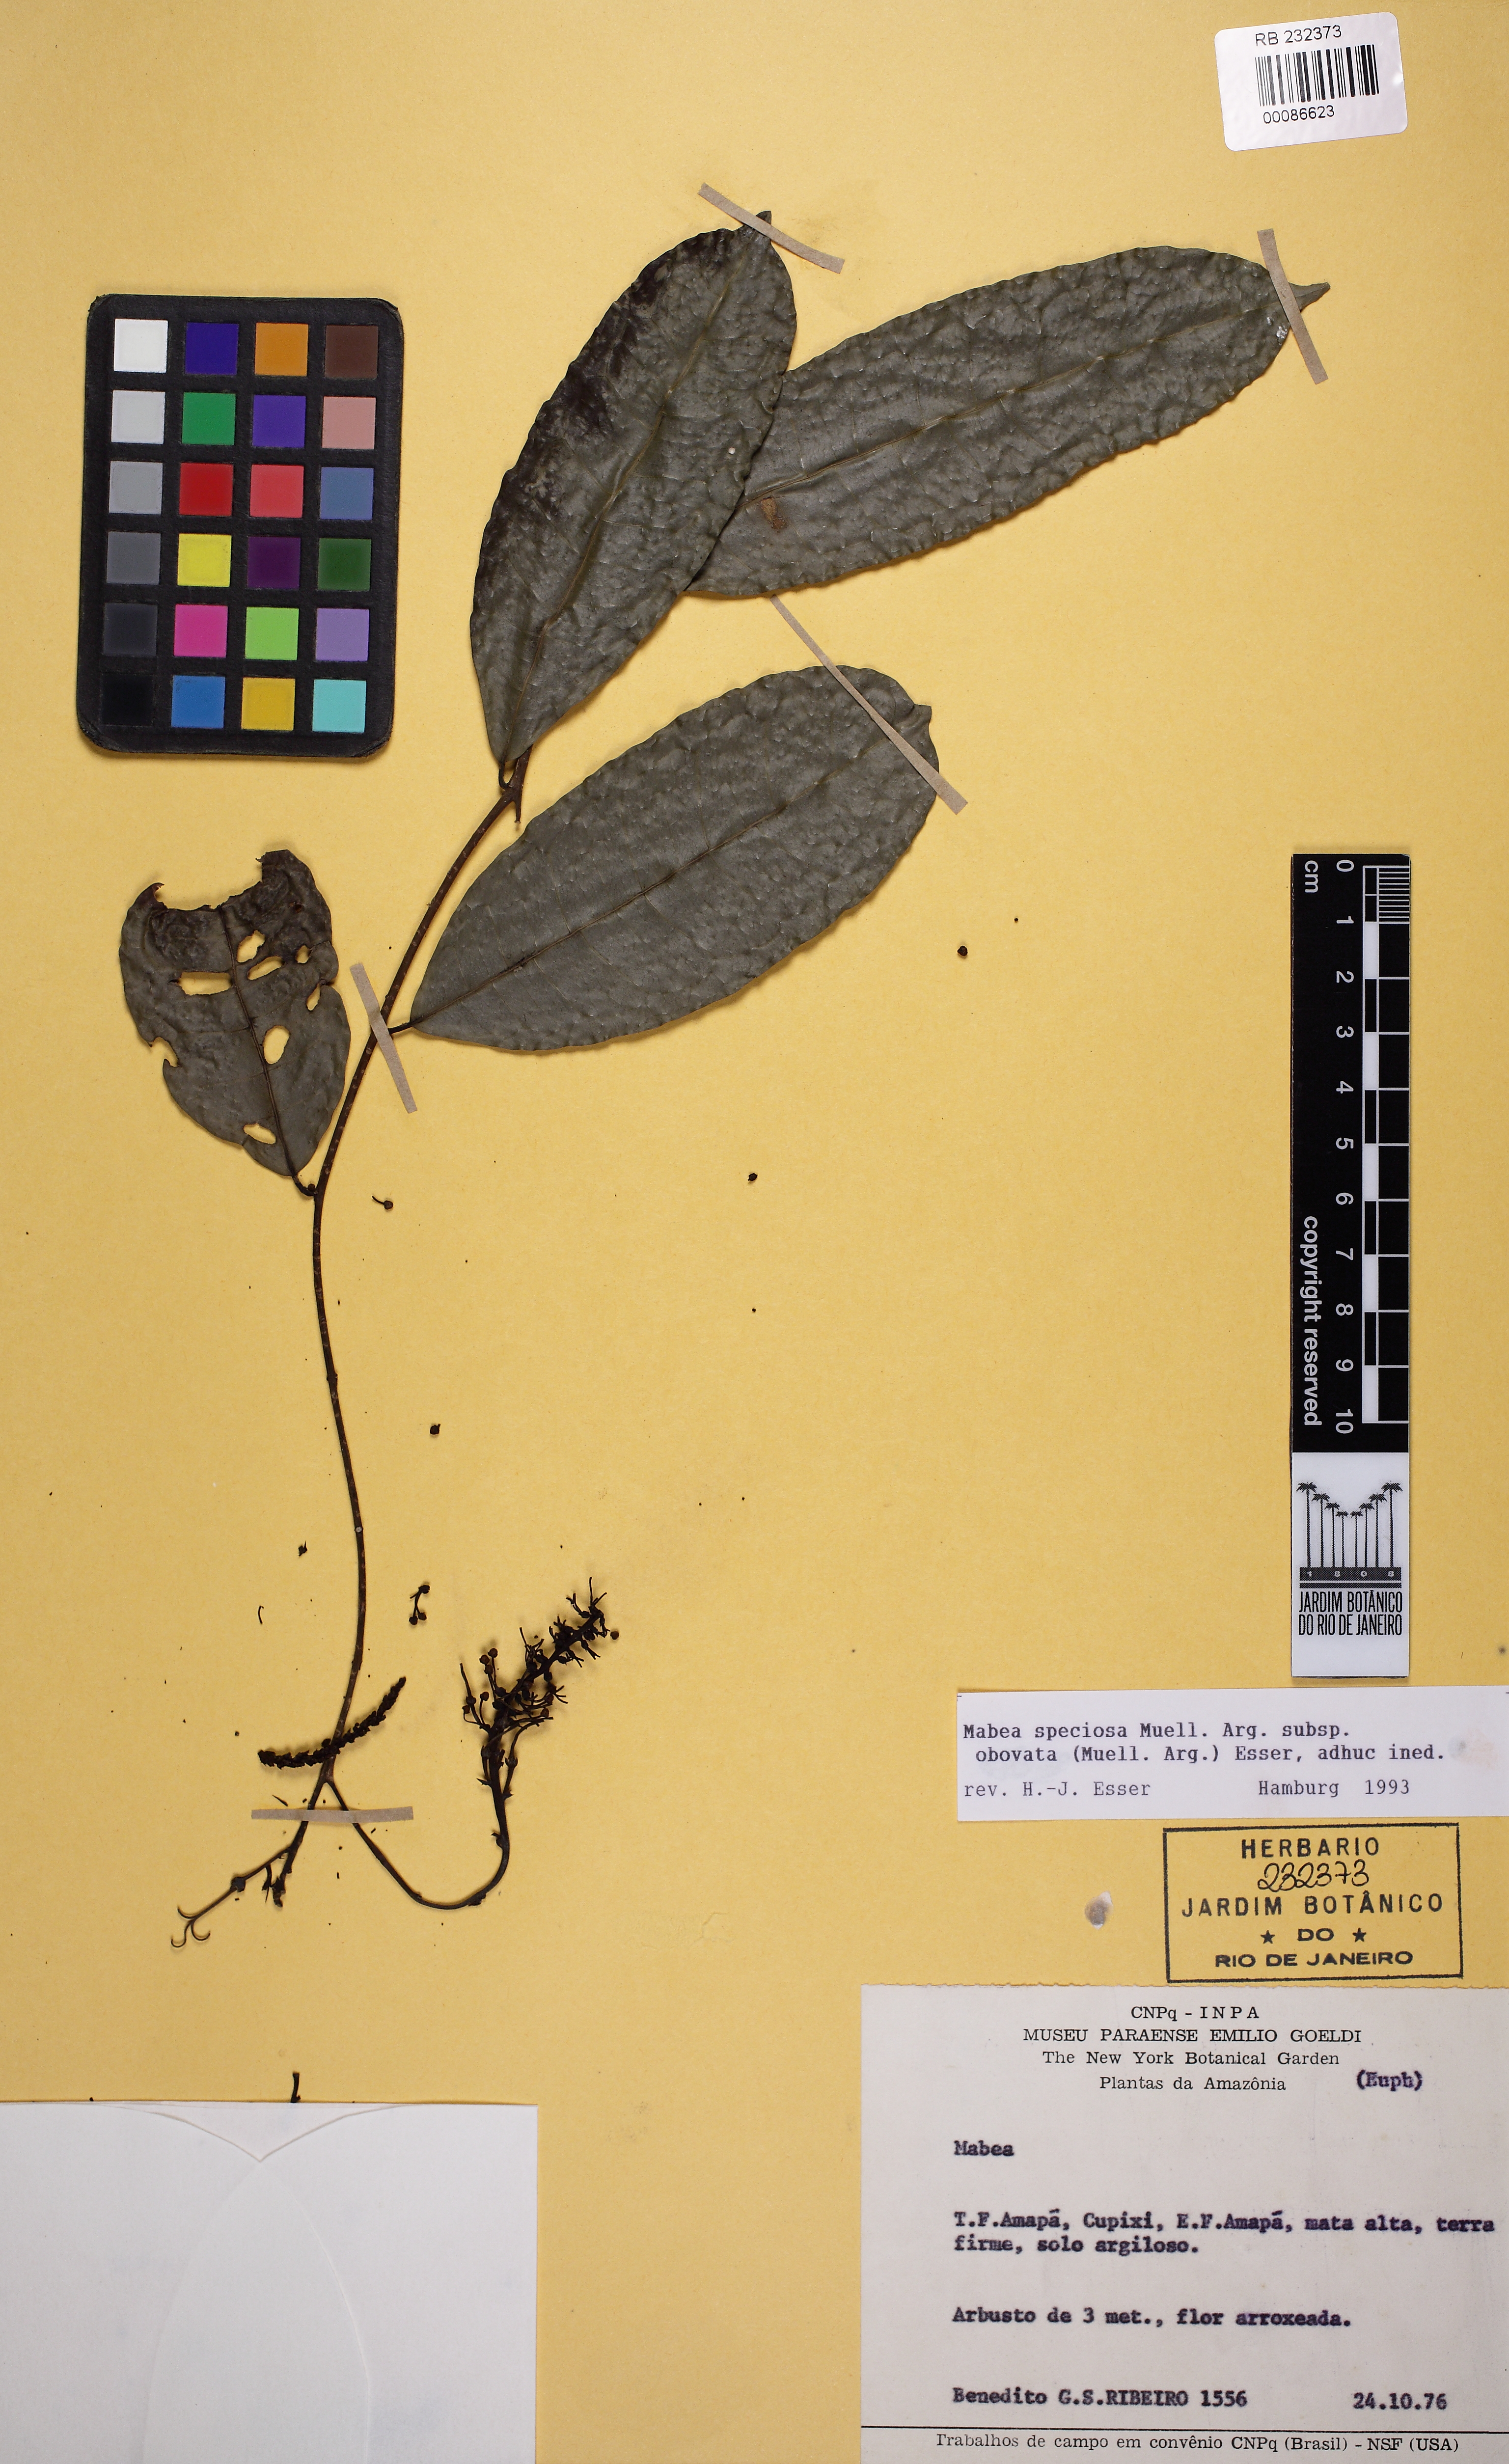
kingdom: Plantae
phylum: Tracheophyta
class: Magnoliopsida
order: Malpighiales
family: Euphorbiaceae
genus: Mabea
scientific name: Mabea speciosa
